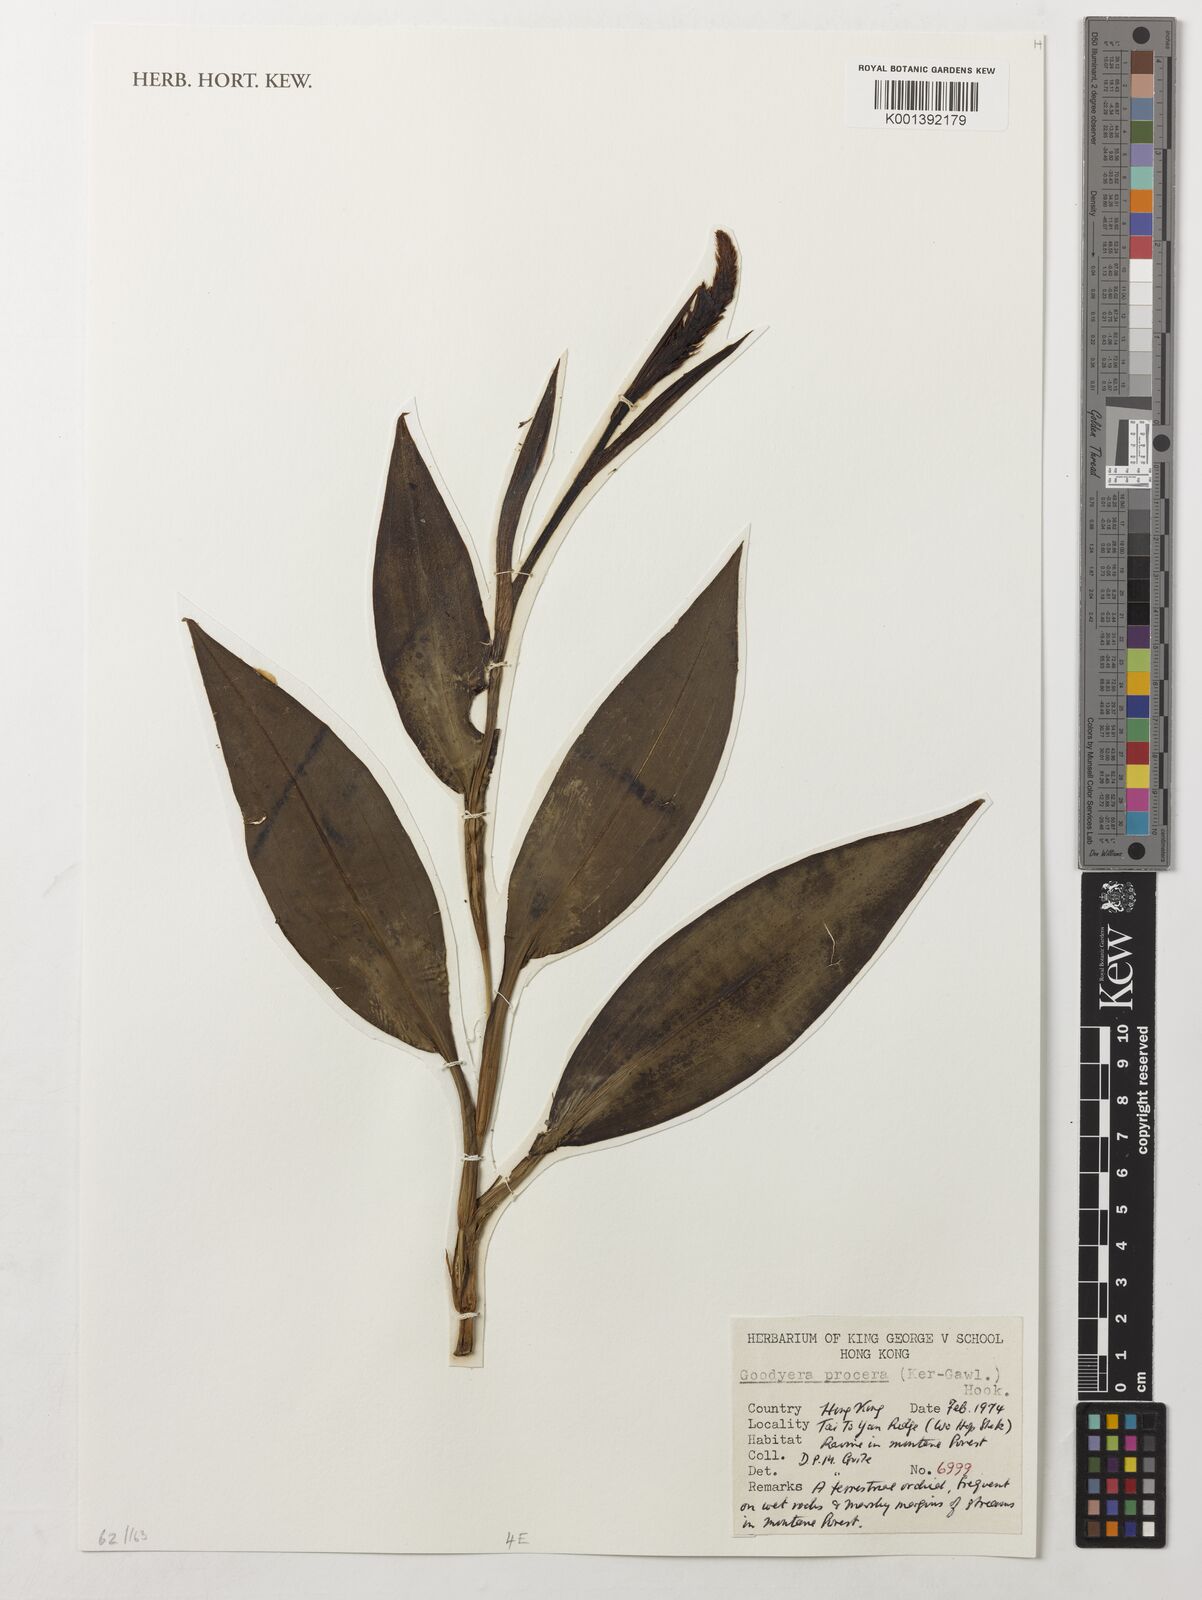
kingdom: Plantae
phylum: Tracheophyta
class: Liliopsida
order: Asparagales
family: Orchidaceae
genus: Goodyera
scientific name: Goodyera procera
